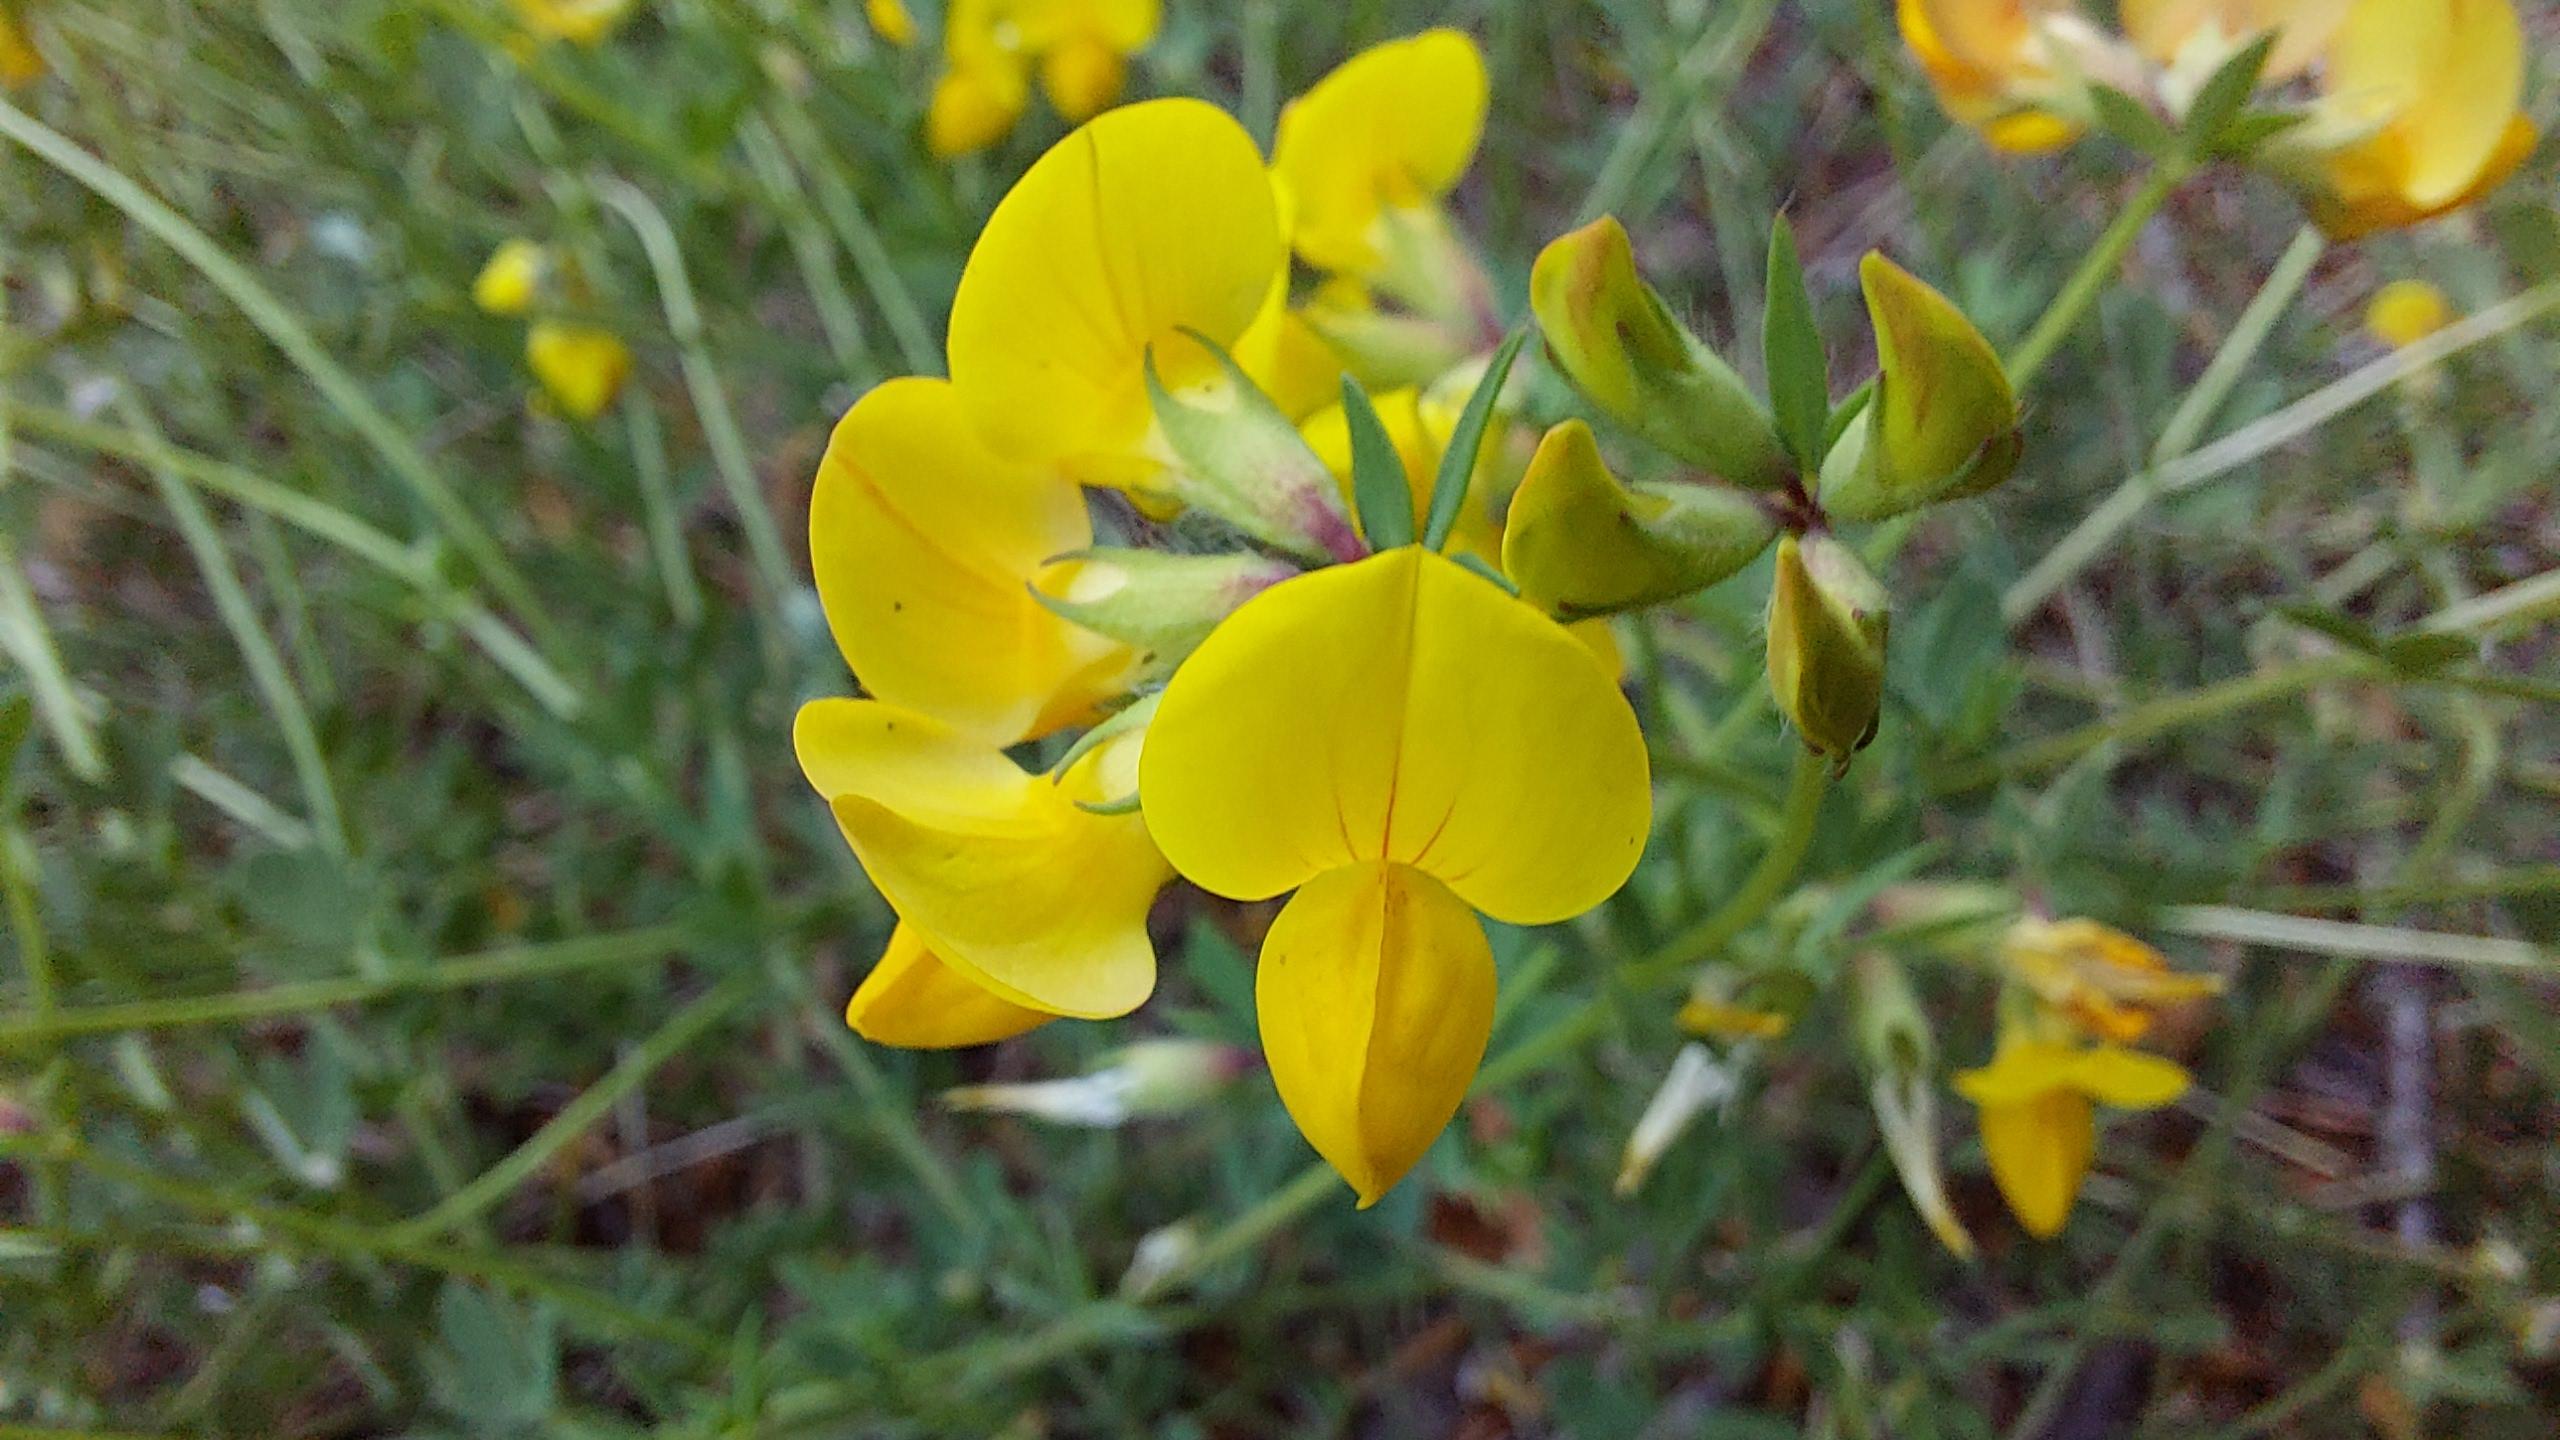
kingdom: Plantae
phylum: Tracheophyta
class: Magnoliopsida
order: Fabales
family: Fabaceae
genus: Lotus
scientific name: Lotus corniculatus
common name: Almindelig kællingetand
